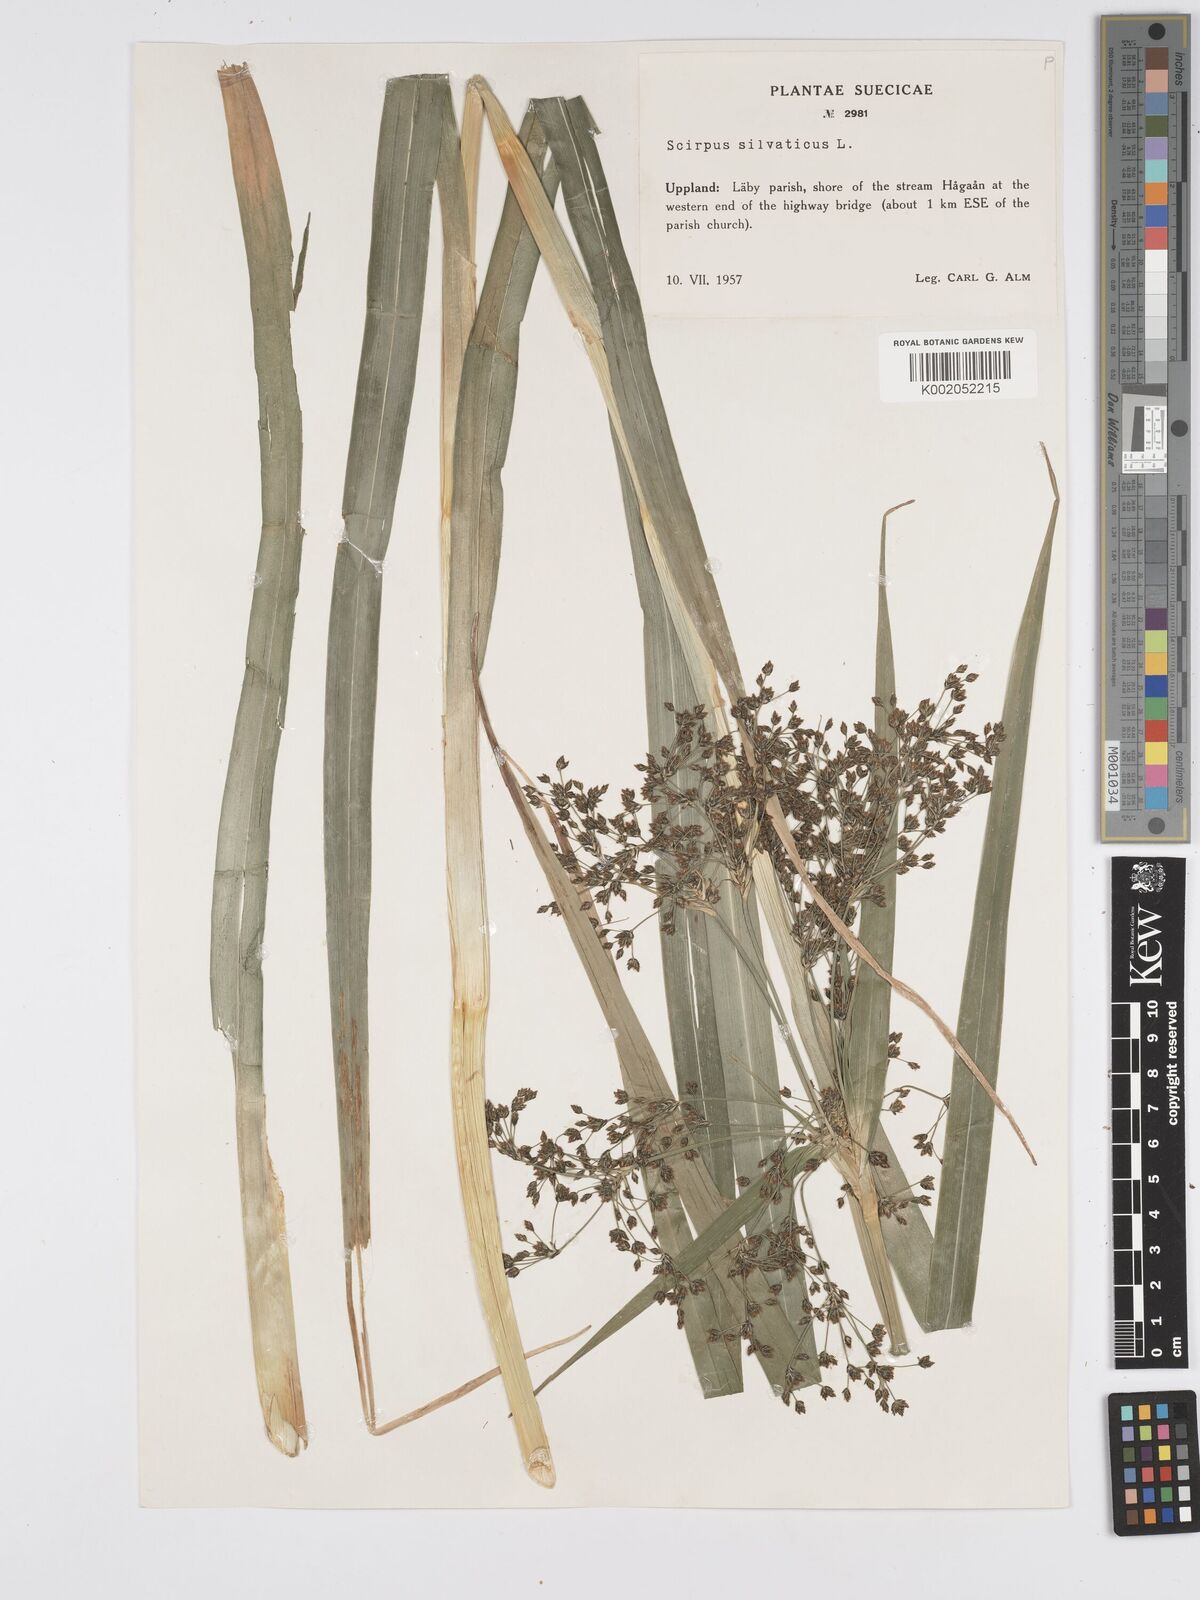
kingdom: Plantae
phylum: Tracheophyta
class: Liliopsida
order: Poales
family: Cyperaceae
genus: Scirpus
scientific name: Scirpus sylvaticus
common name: Wood club-rush
